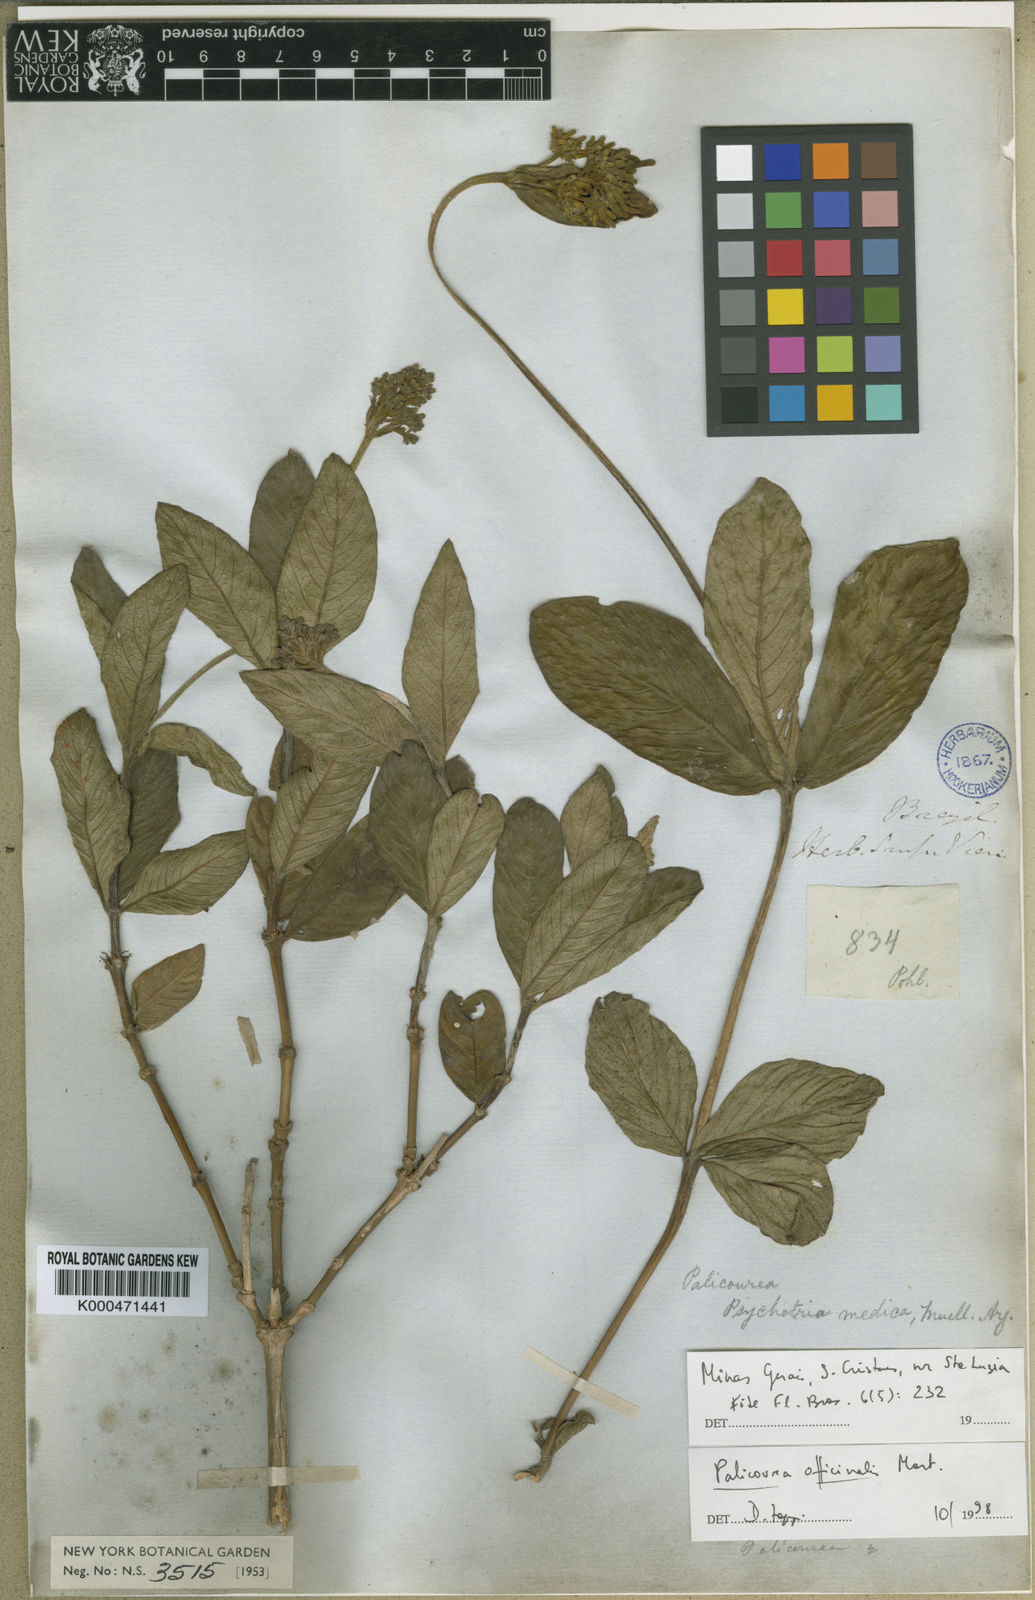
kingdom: Plantae
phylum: Tracheophyta
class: Magnoliopsida
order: Gentianales
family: Rubiaceae
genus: Palicourea
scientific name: Palicourea officinalis
